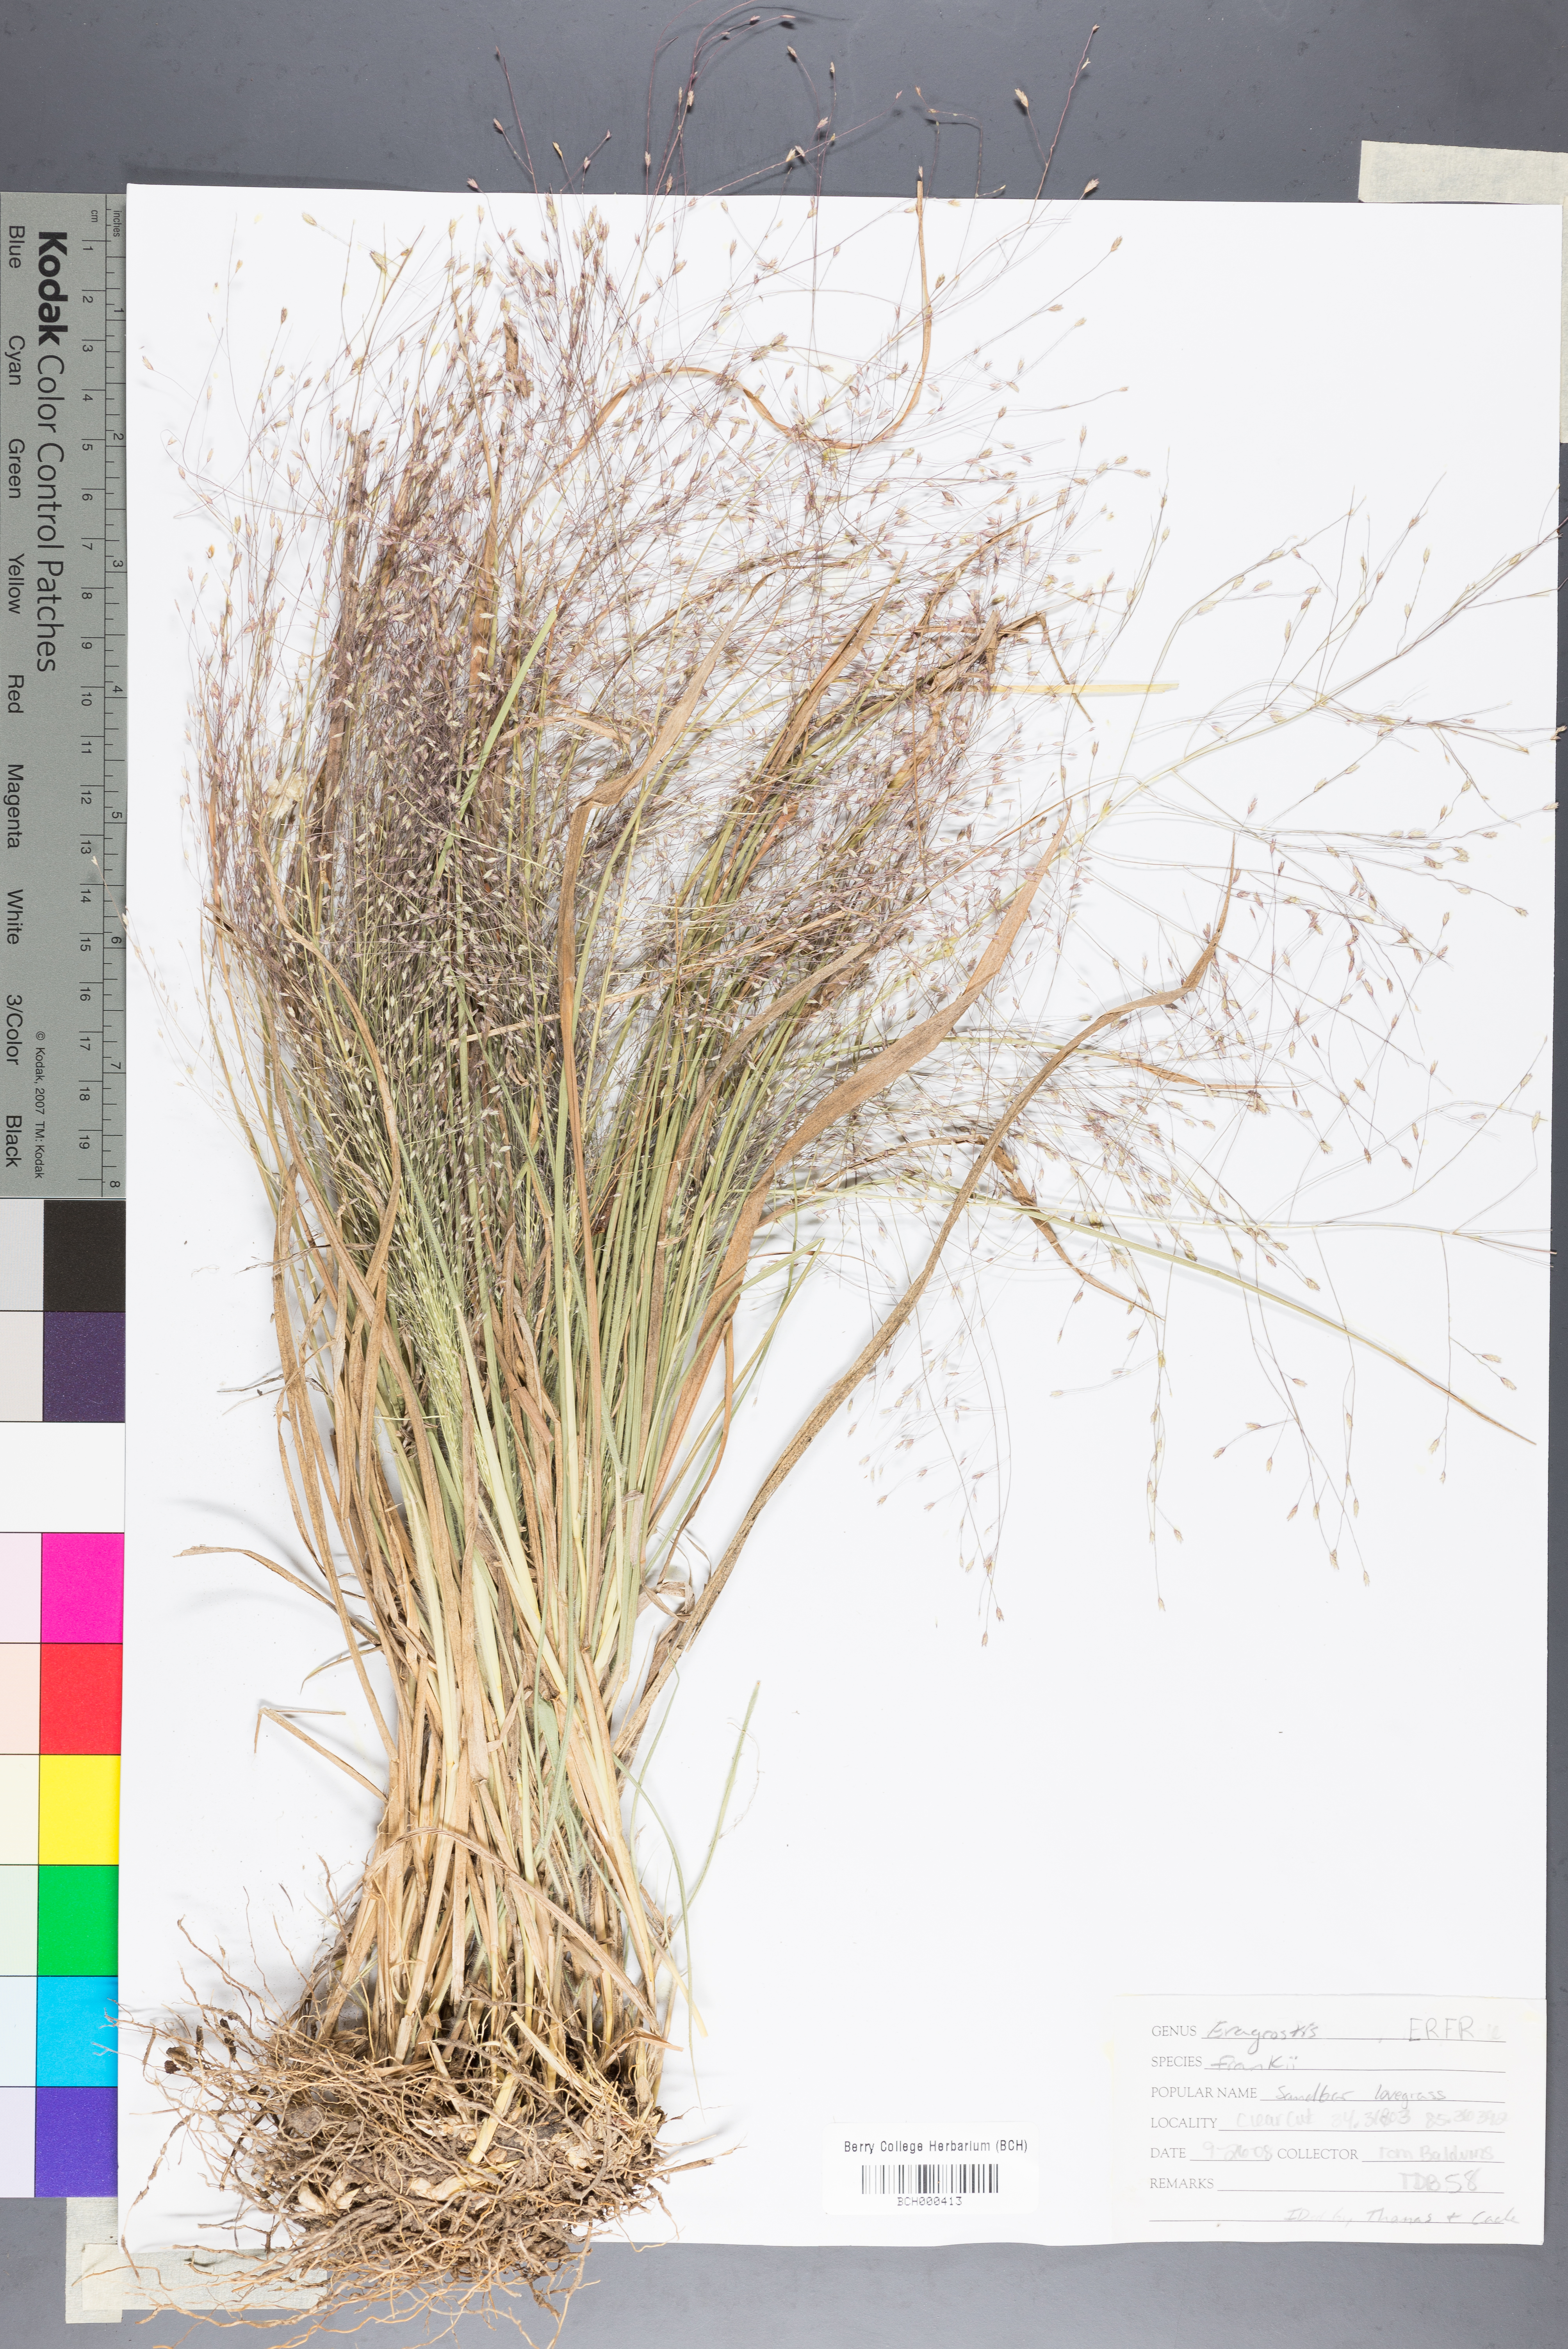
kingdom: Plantae
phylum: Tracheophyta
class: Liliopsida
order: Poales
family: Poaceae
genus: Eragrostis
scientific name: Eragrostis frankii
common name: Frank's lovegrass
